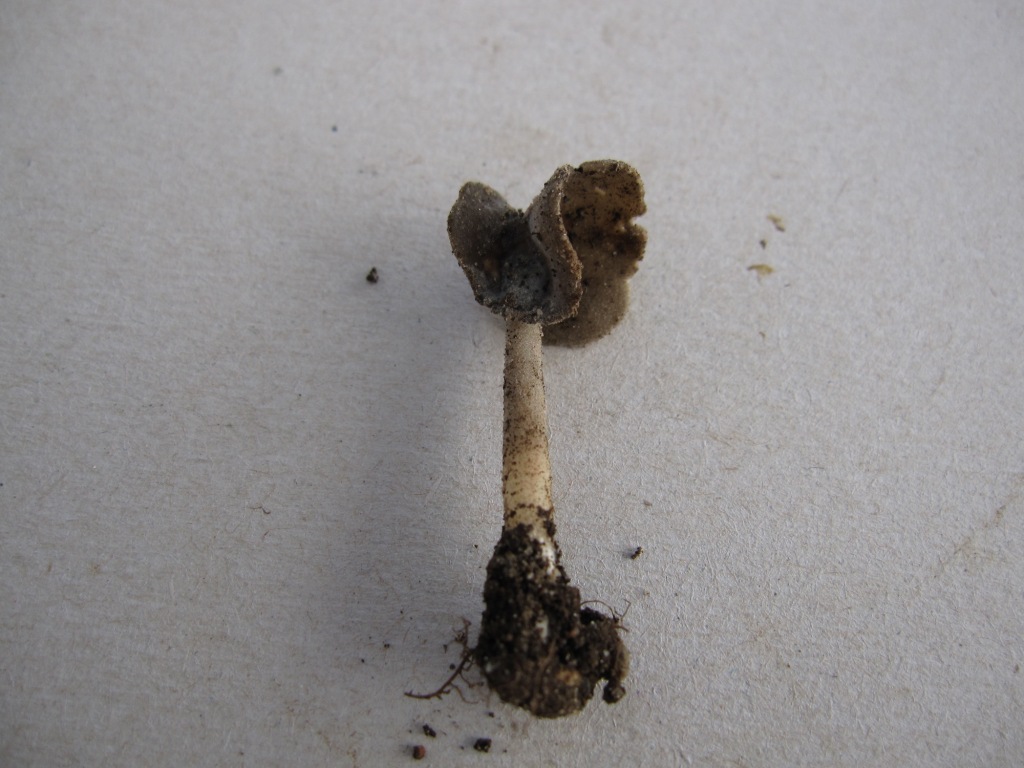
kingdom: Fungi
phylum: Ascomycota
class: Pezizomycetes
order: Pezizales
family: Helvellaceae
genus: Helvella
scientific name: Helvella sublicia
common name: saddel-foldhat
